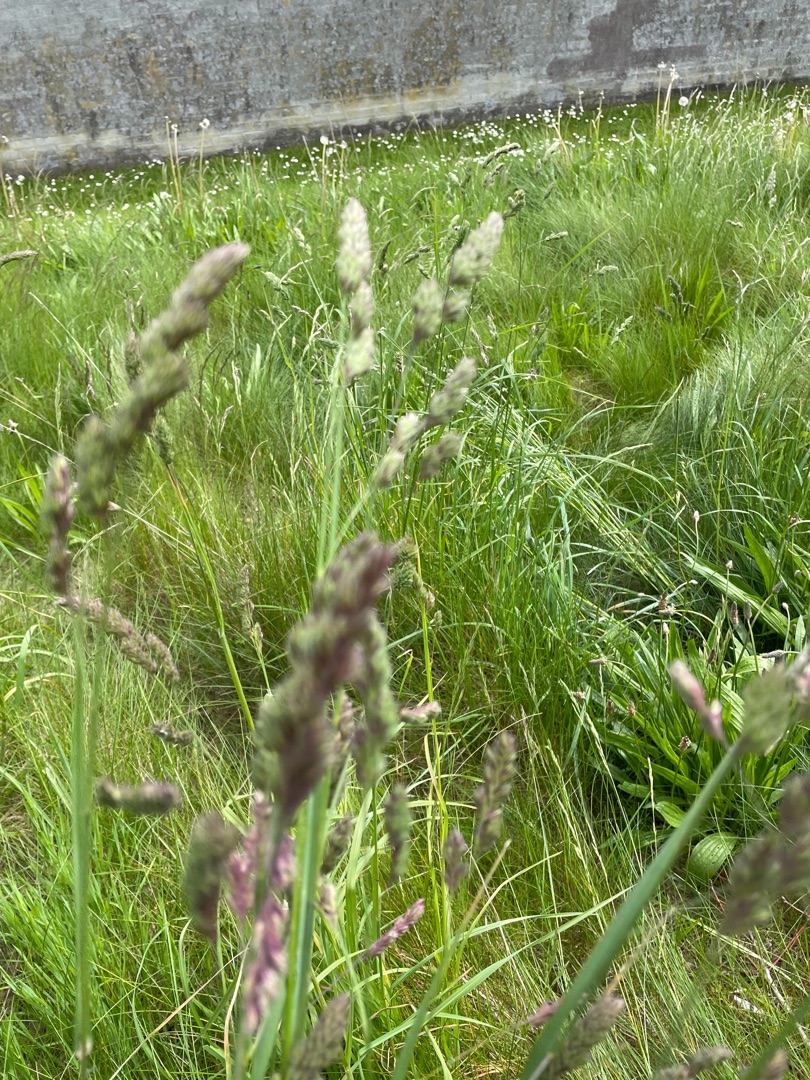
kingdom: Plantae
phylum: Tracheophyta
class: Liliopsida
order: Poales
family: Poaceae
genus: Dactylis
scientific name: Dactylis glomerata
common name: Almindelig hundegræs
